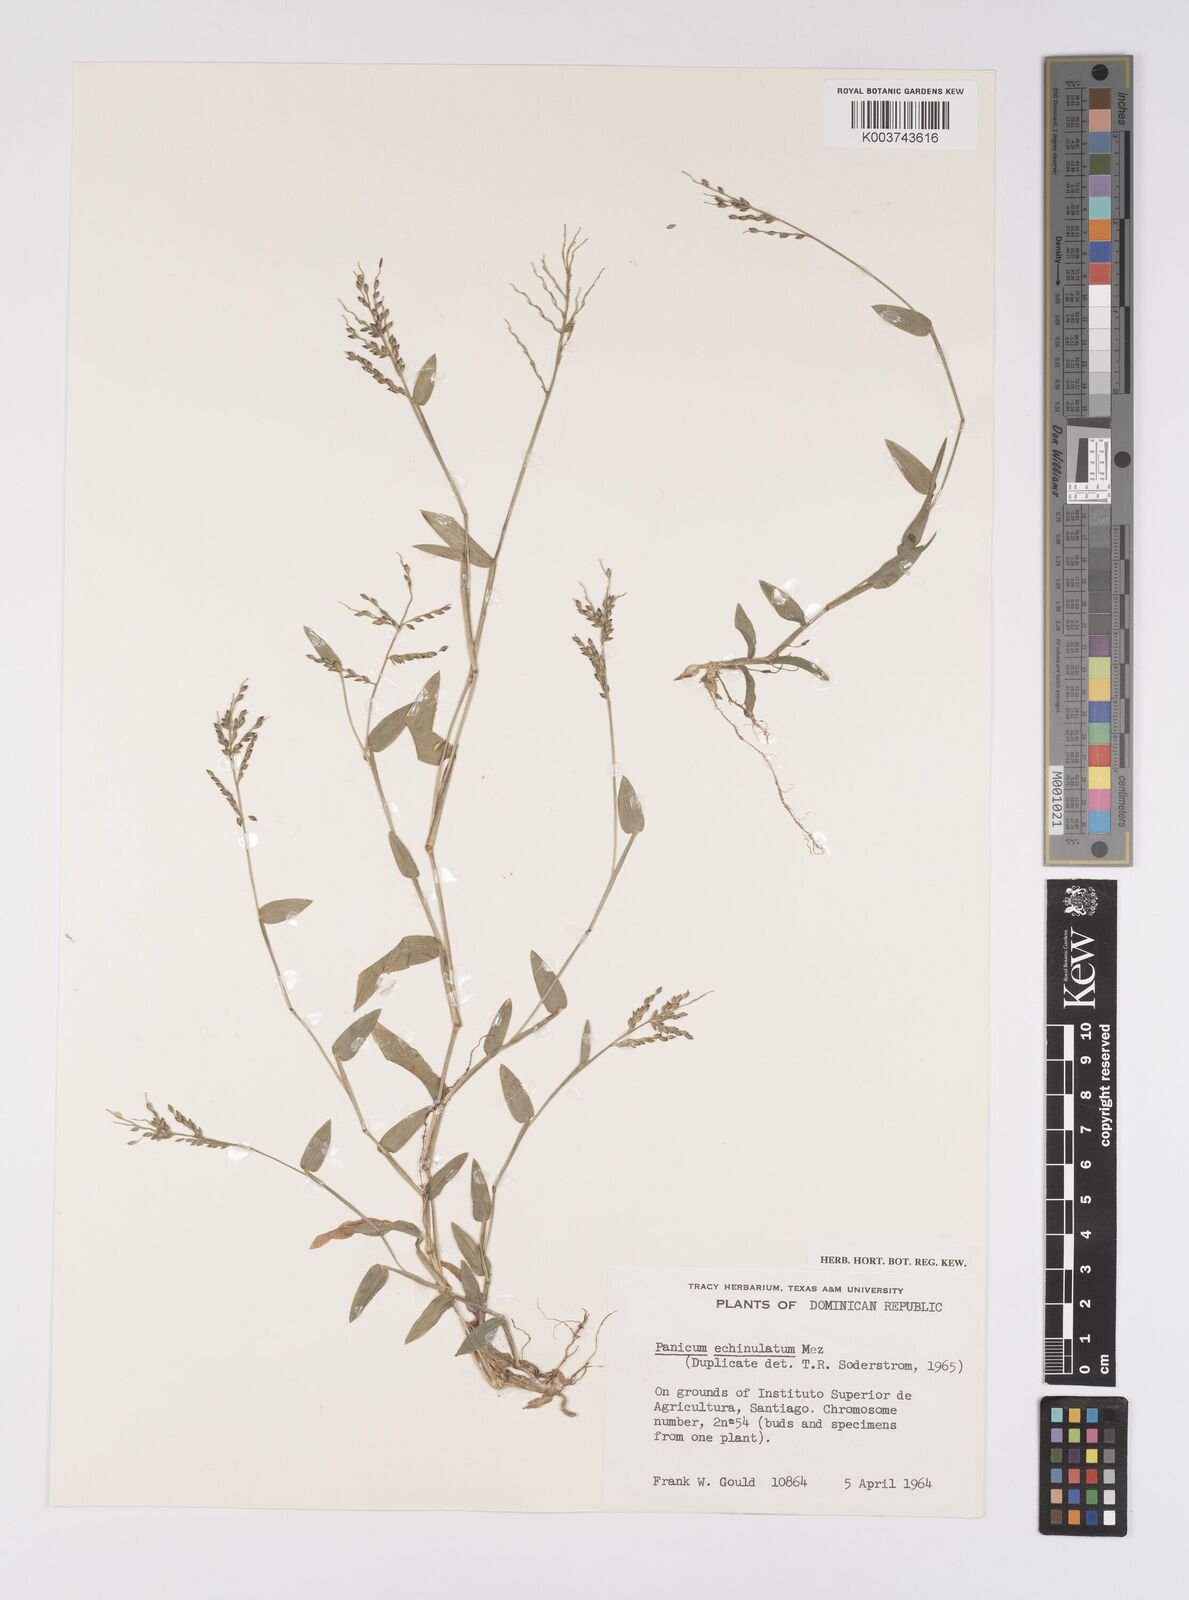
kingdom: Plantae
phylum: Tracheophyta
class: Liliopsida
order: Poales
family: Poaceae
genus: Urochloa
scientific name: Urochloa Brachiaria echinulata
